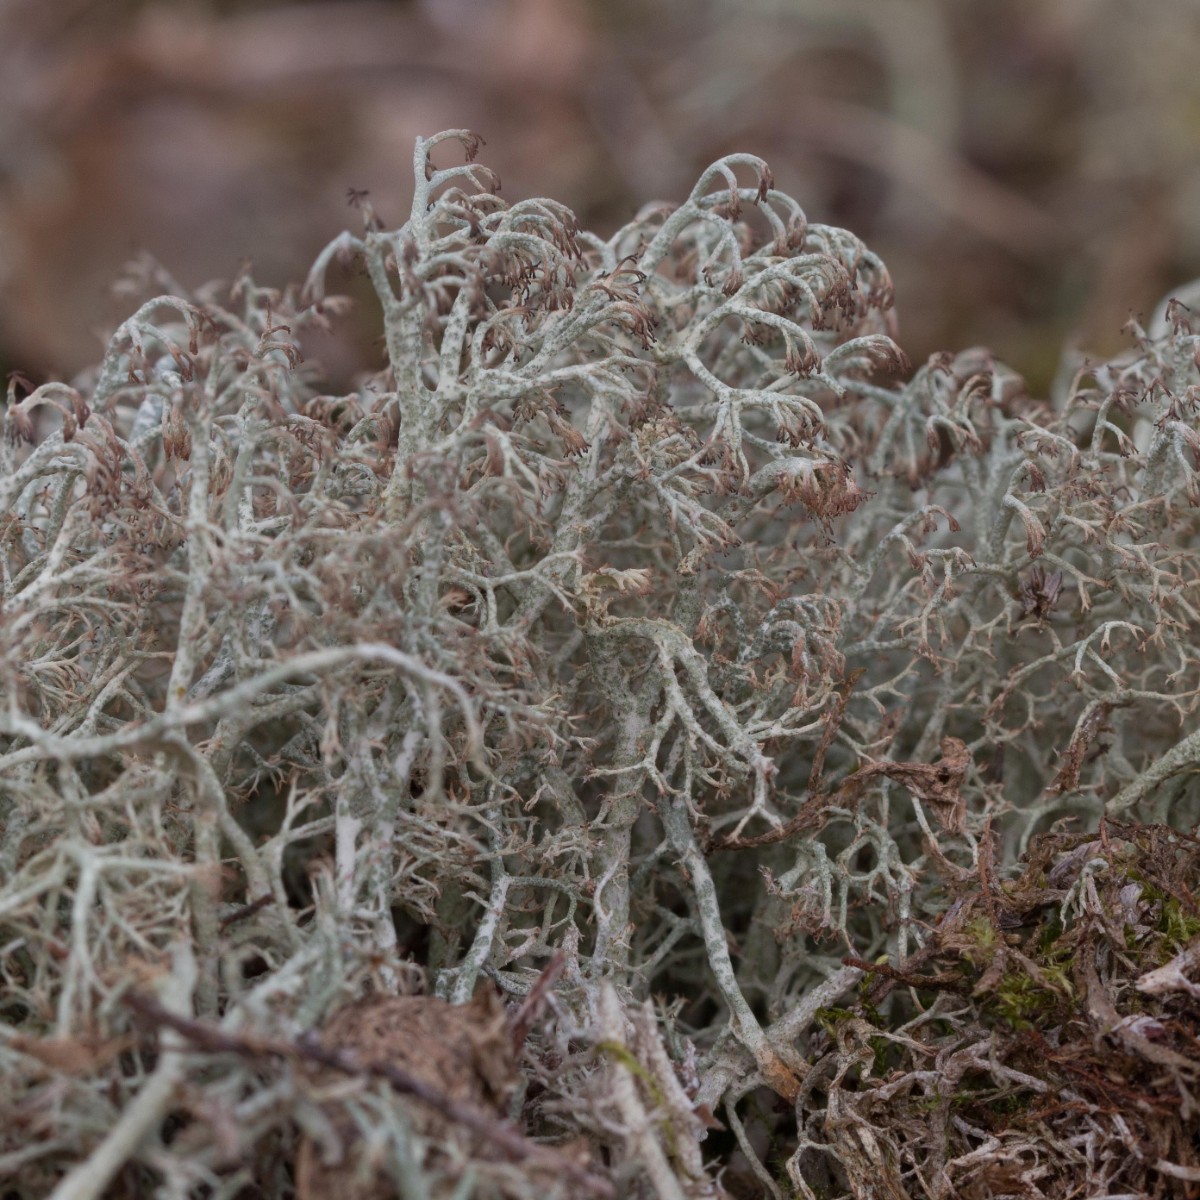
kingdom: Fungi
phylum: Ascomycota
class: Lecanoromycetes
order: Lecanorales
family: Cladoniaceae
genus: Cladonia
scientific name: Cladonia ciliata
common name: spinkel rensdyrlav
